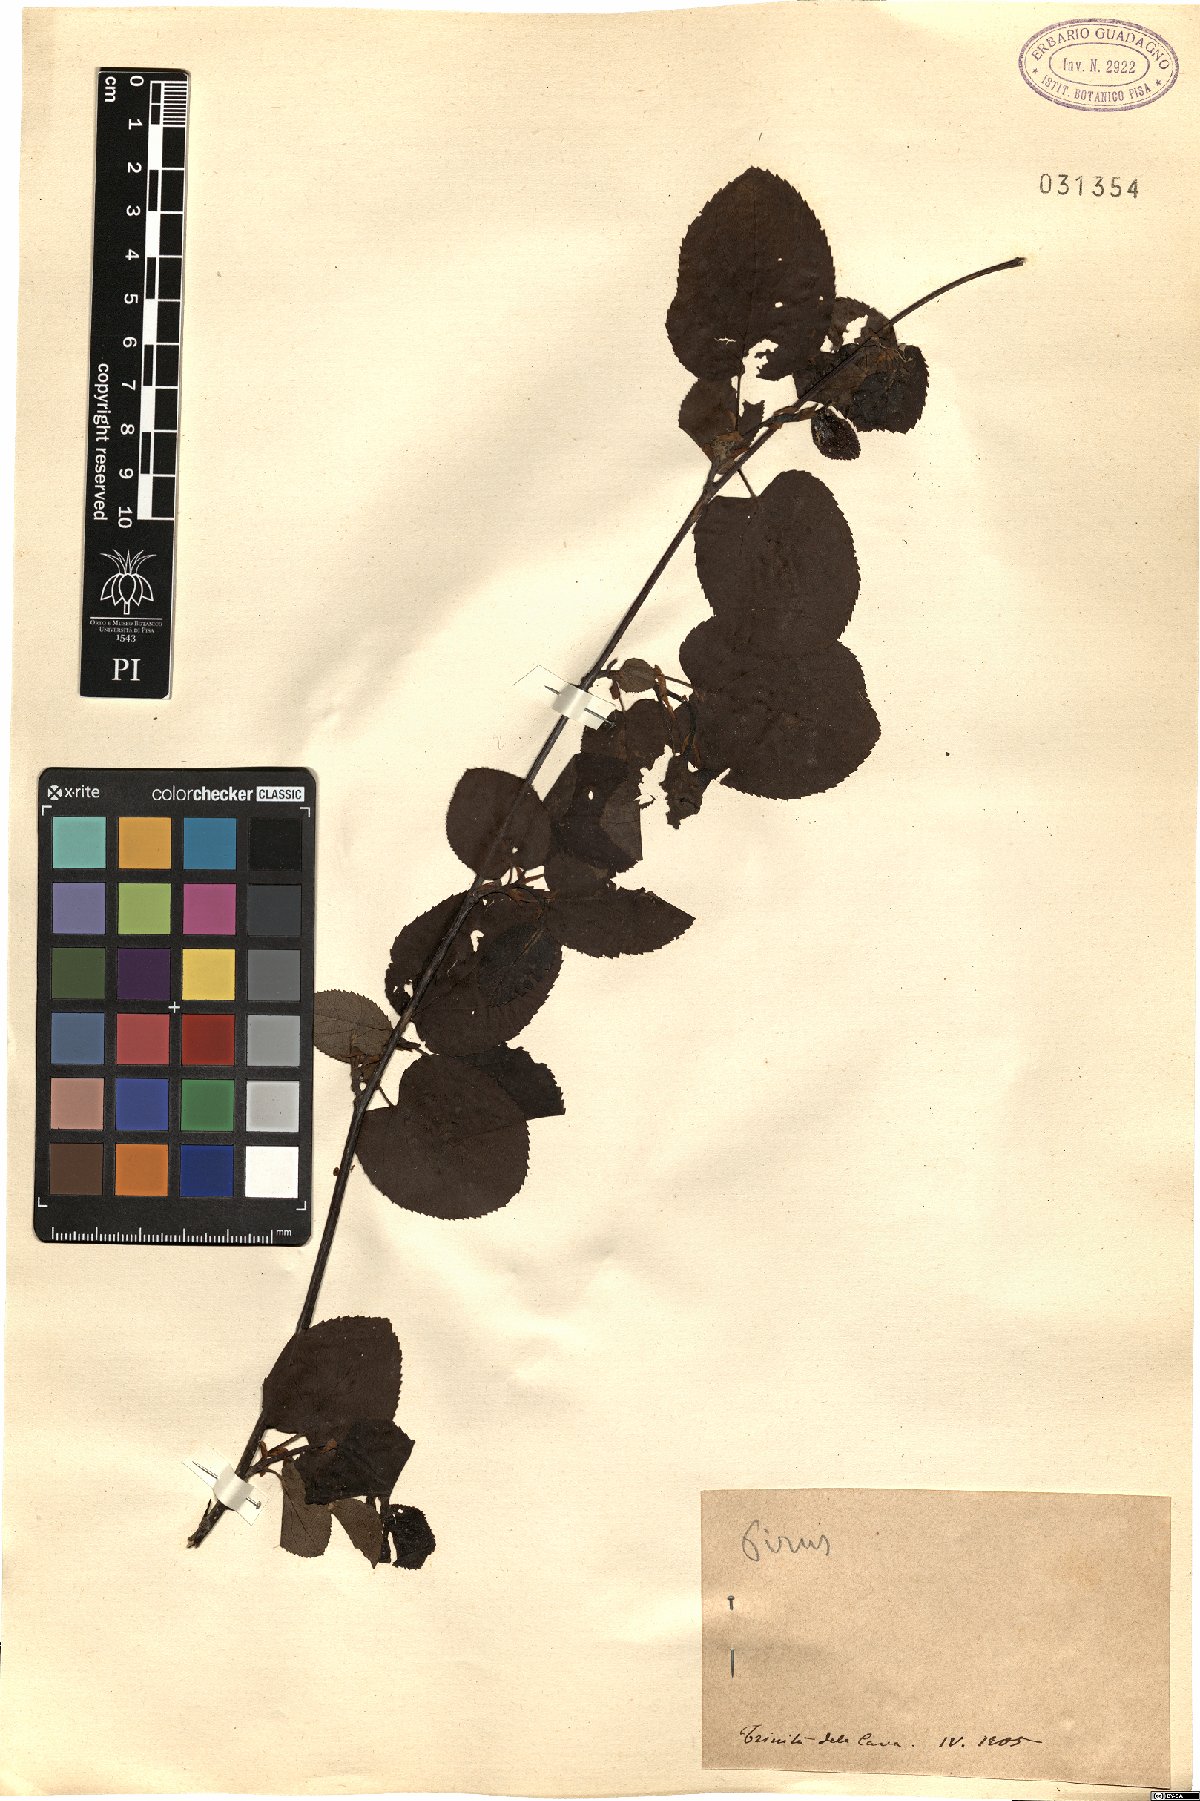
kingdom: Plantae
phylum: Tracheophyta
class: Magnoliopsida
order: Rosales
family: Rosaceae
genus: Pyrus
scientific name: Pyrus
